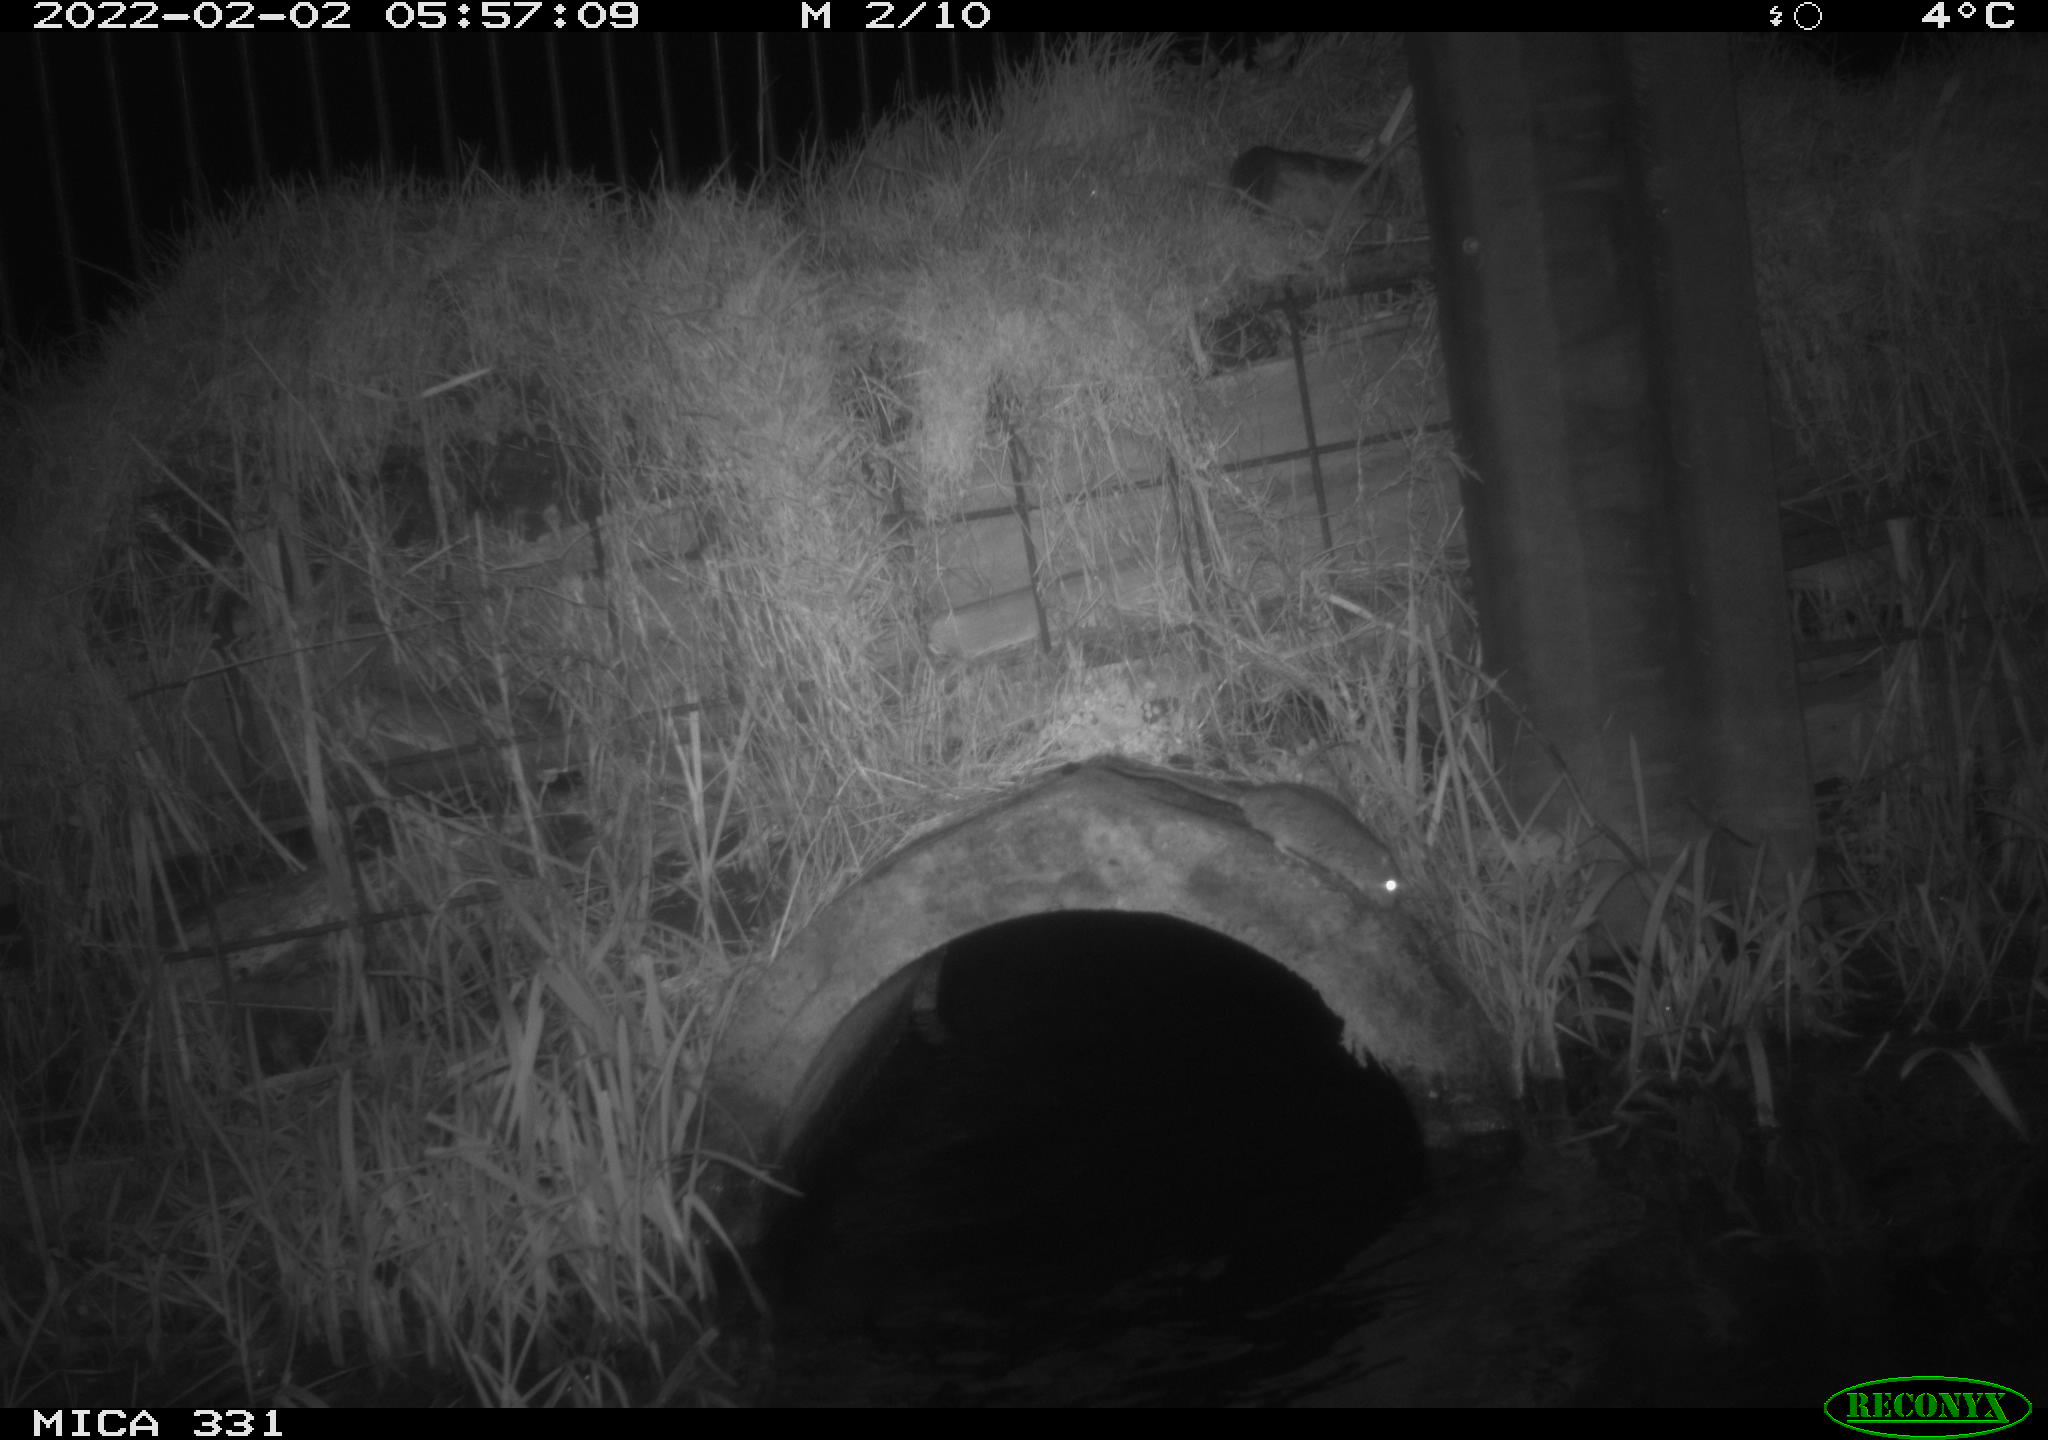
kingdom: Animalia
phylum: Chordata
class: Mammalia
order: Carnivora
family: Canidae
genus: Vulpes
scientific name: Vulpes vulpes
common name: Red fox
